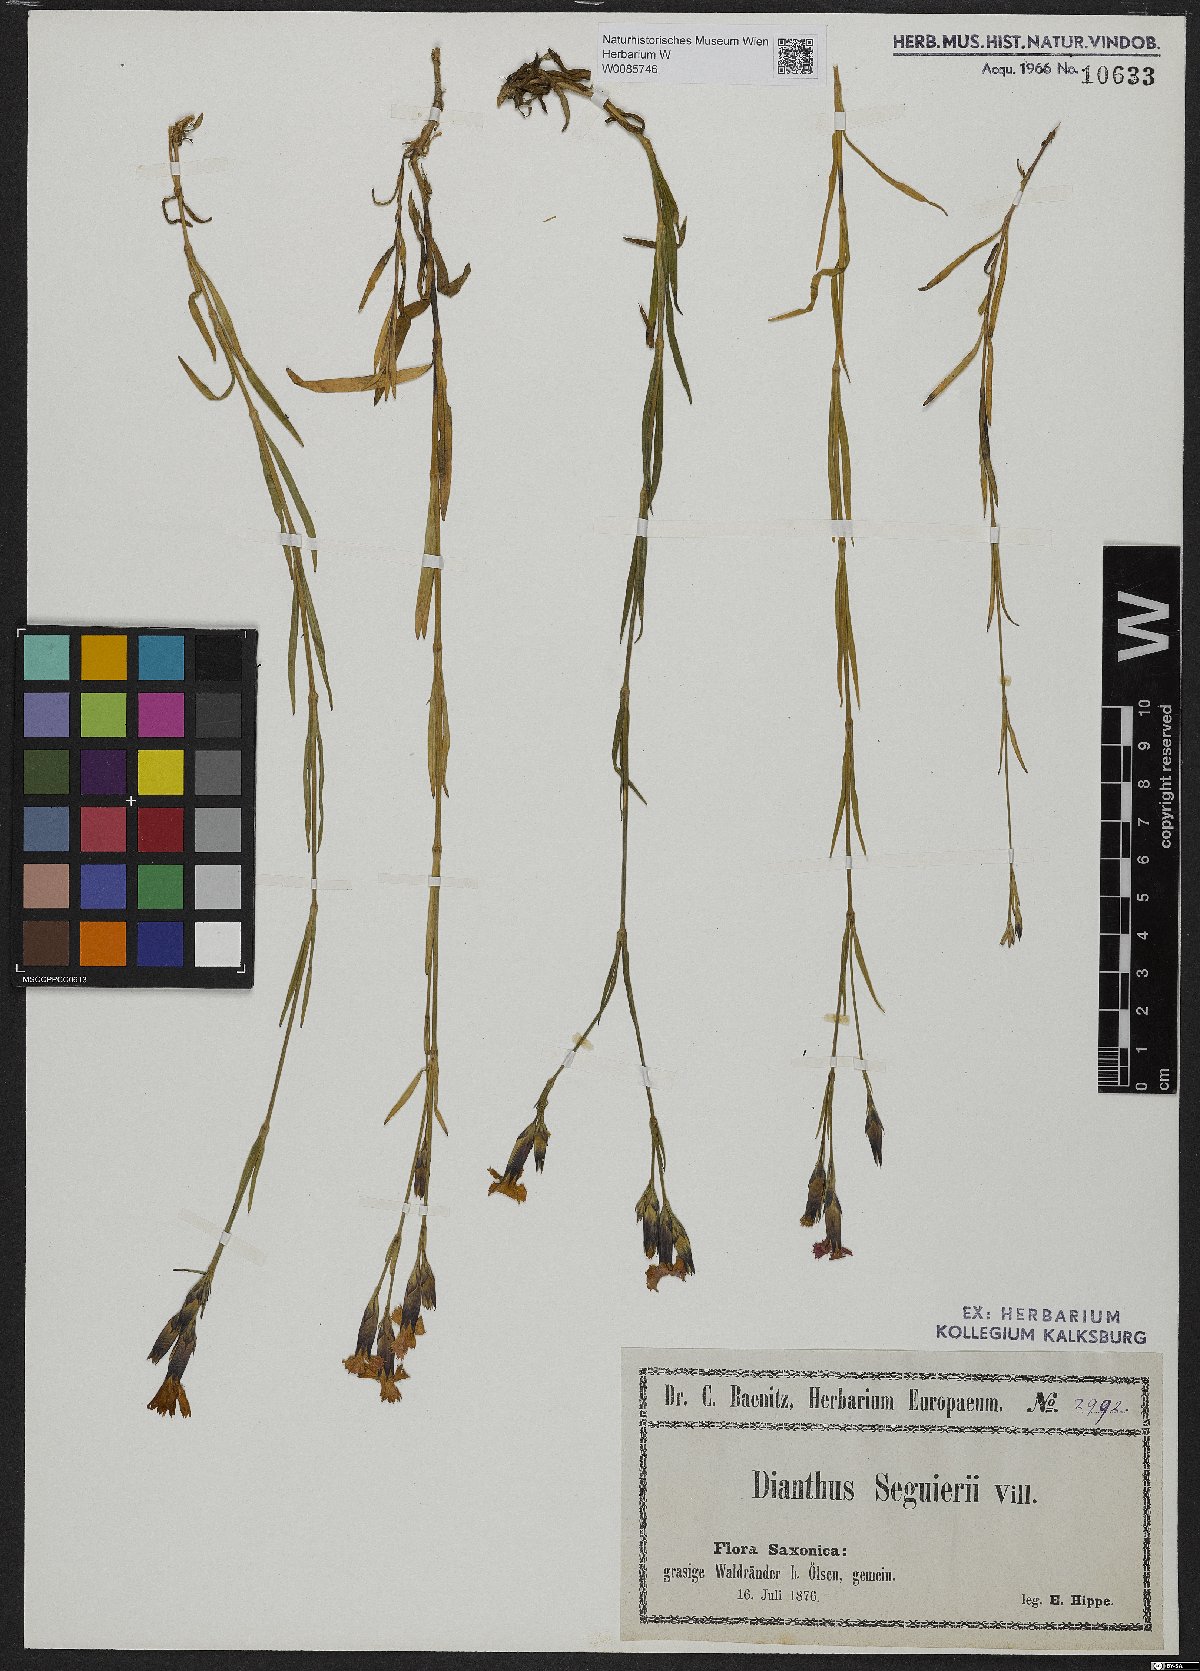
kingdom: Plantae
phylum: Tracheophyta
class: Magnoliopsida
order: Caryophyllales
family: Caryophyllaceae
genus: Dianthus
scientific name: Dianthus seguieri
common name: Ragged pink
